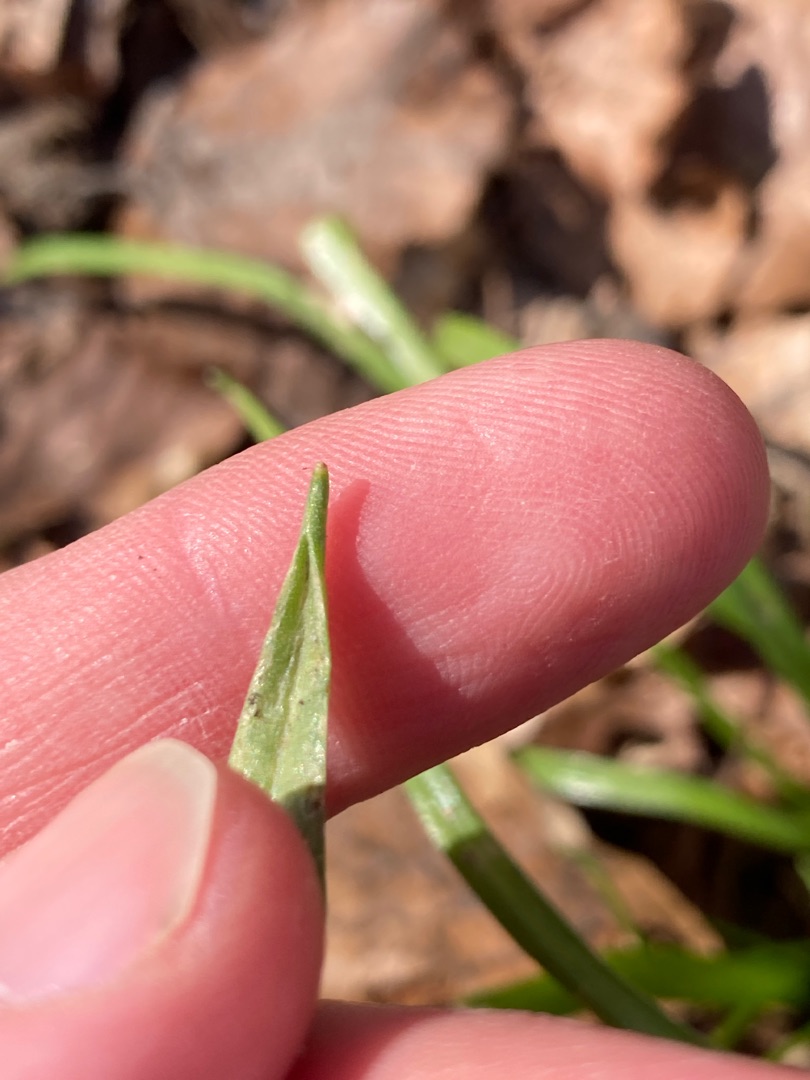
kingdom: Plantae
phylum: Tracheophyta
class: Liliopsida
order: Liliales
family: Liliaceae
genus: Gagea
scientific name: Gagea lutea
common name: Almindelig guldstjerne
